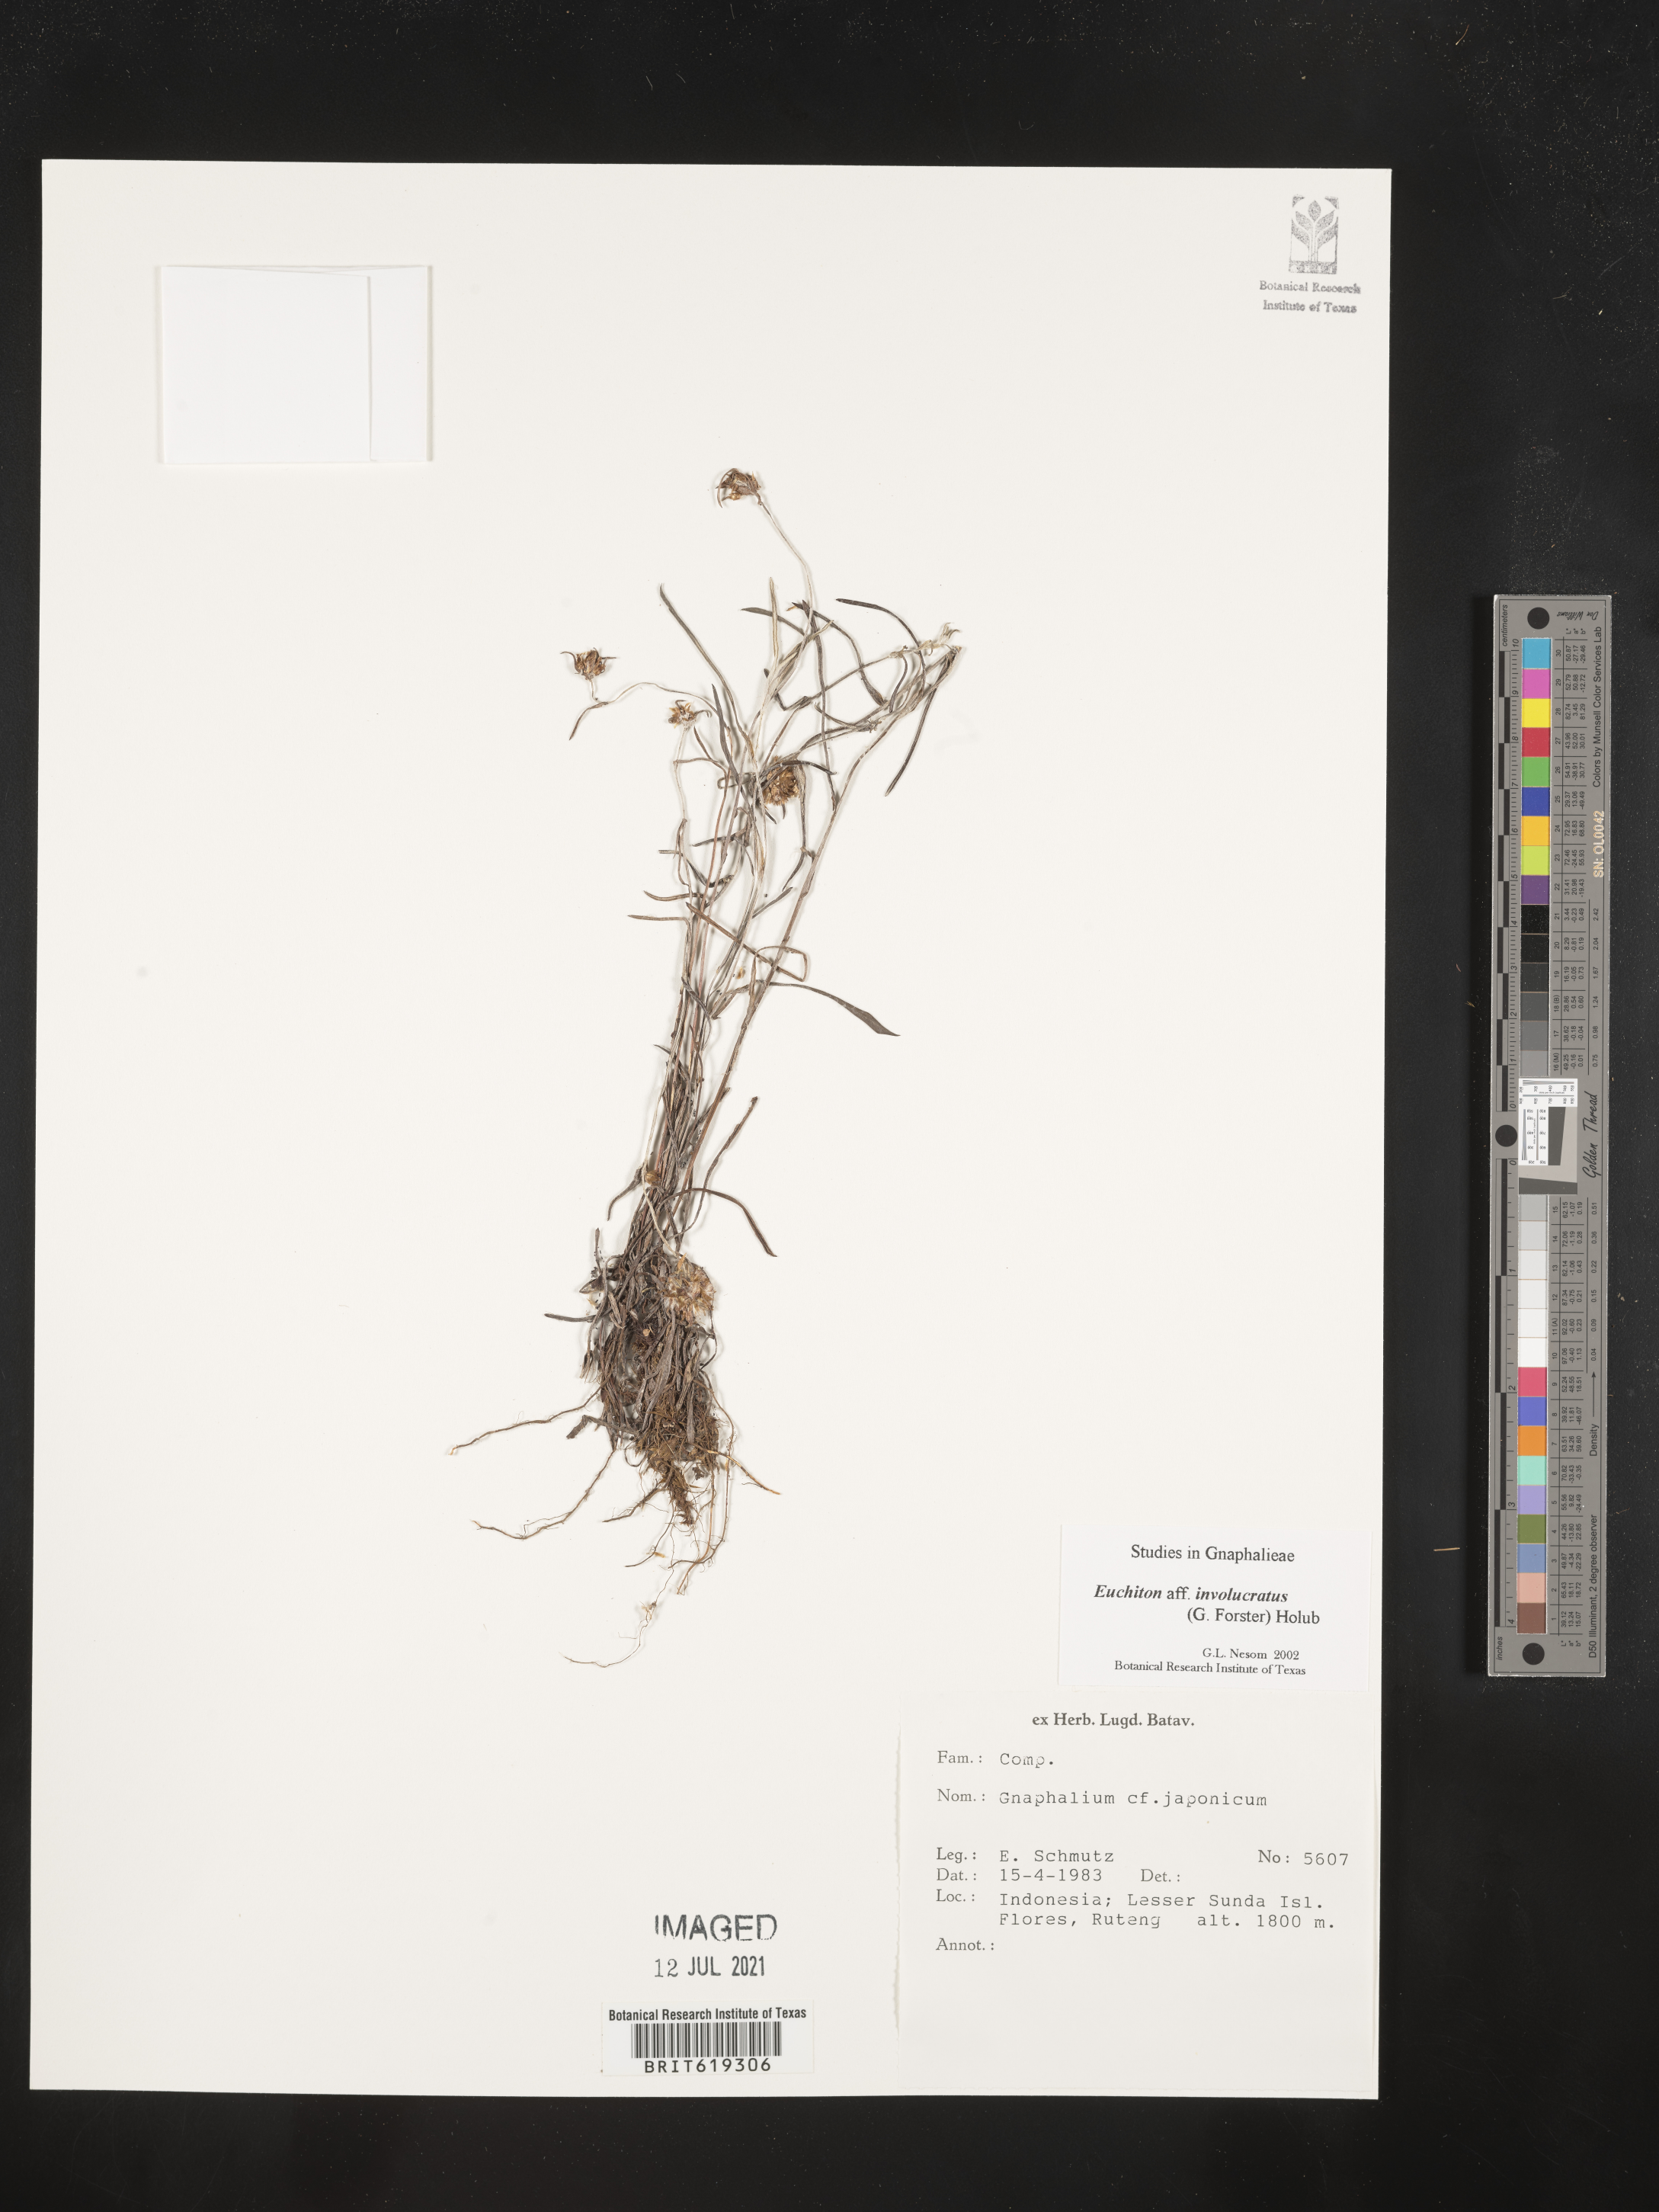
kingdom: Plantae
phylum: Tracheophyta
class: Magnoliopsida
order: Asterales
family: Asteraceae
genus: Euchiton
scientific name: Euchiton involucratus
